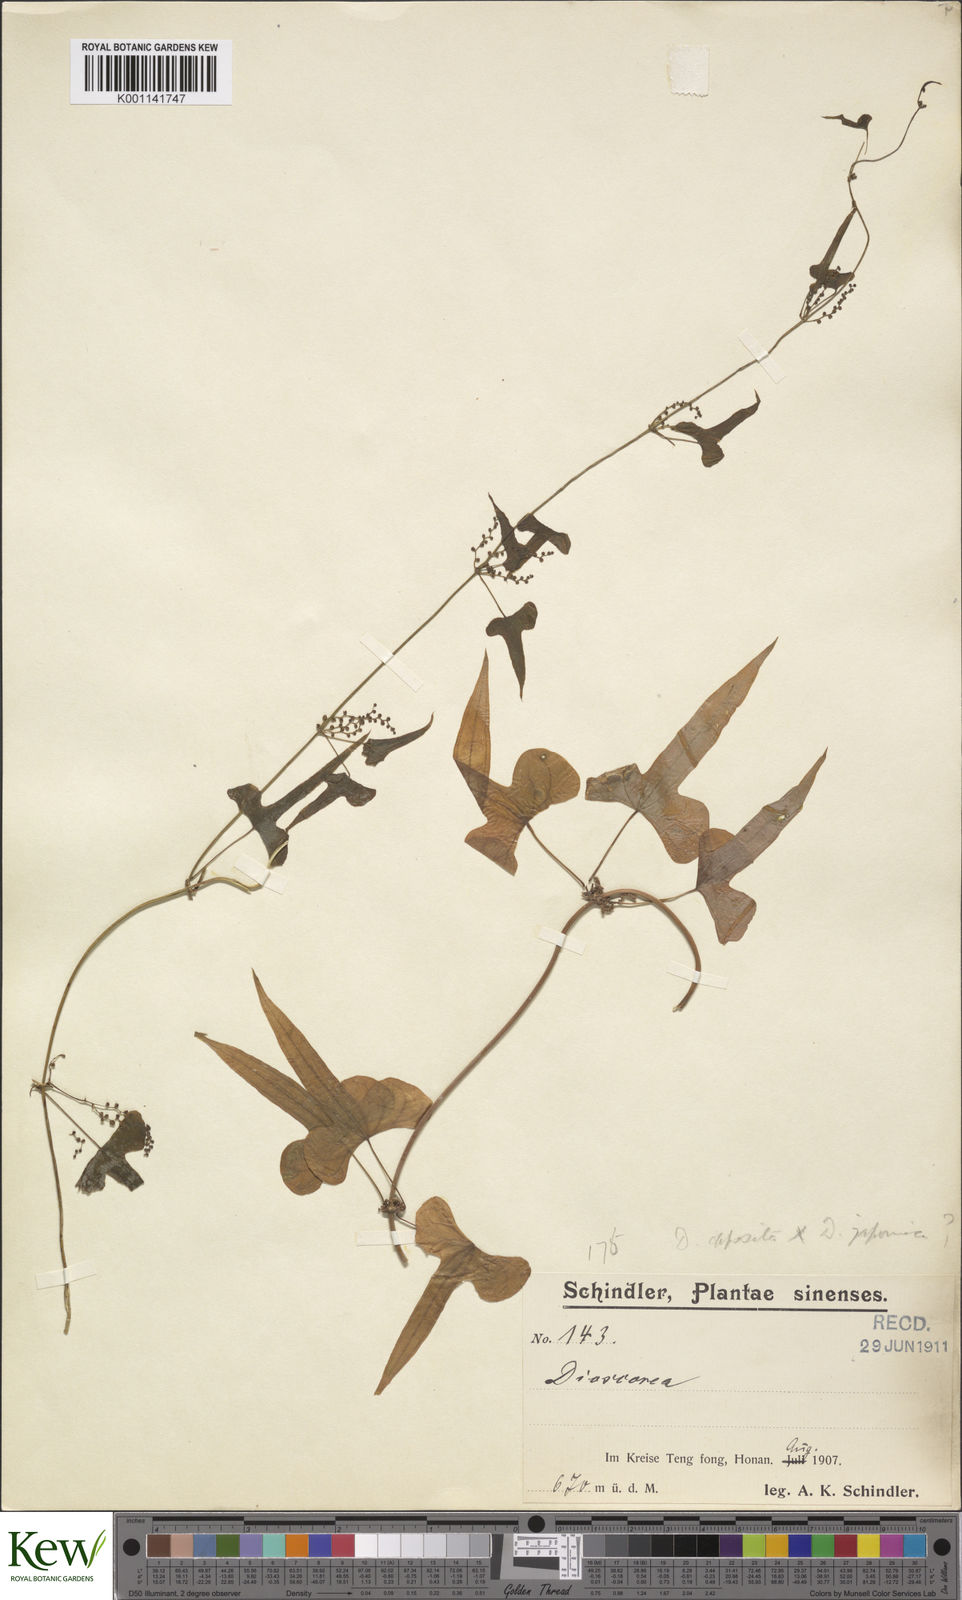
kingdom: Plantae
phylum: Tracheophyta
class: Liliopsida
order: Dioscoreales
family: Dioscoreaceae
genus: Dioscorea
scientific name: Dioscorea polystachya
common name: Chinese yam
